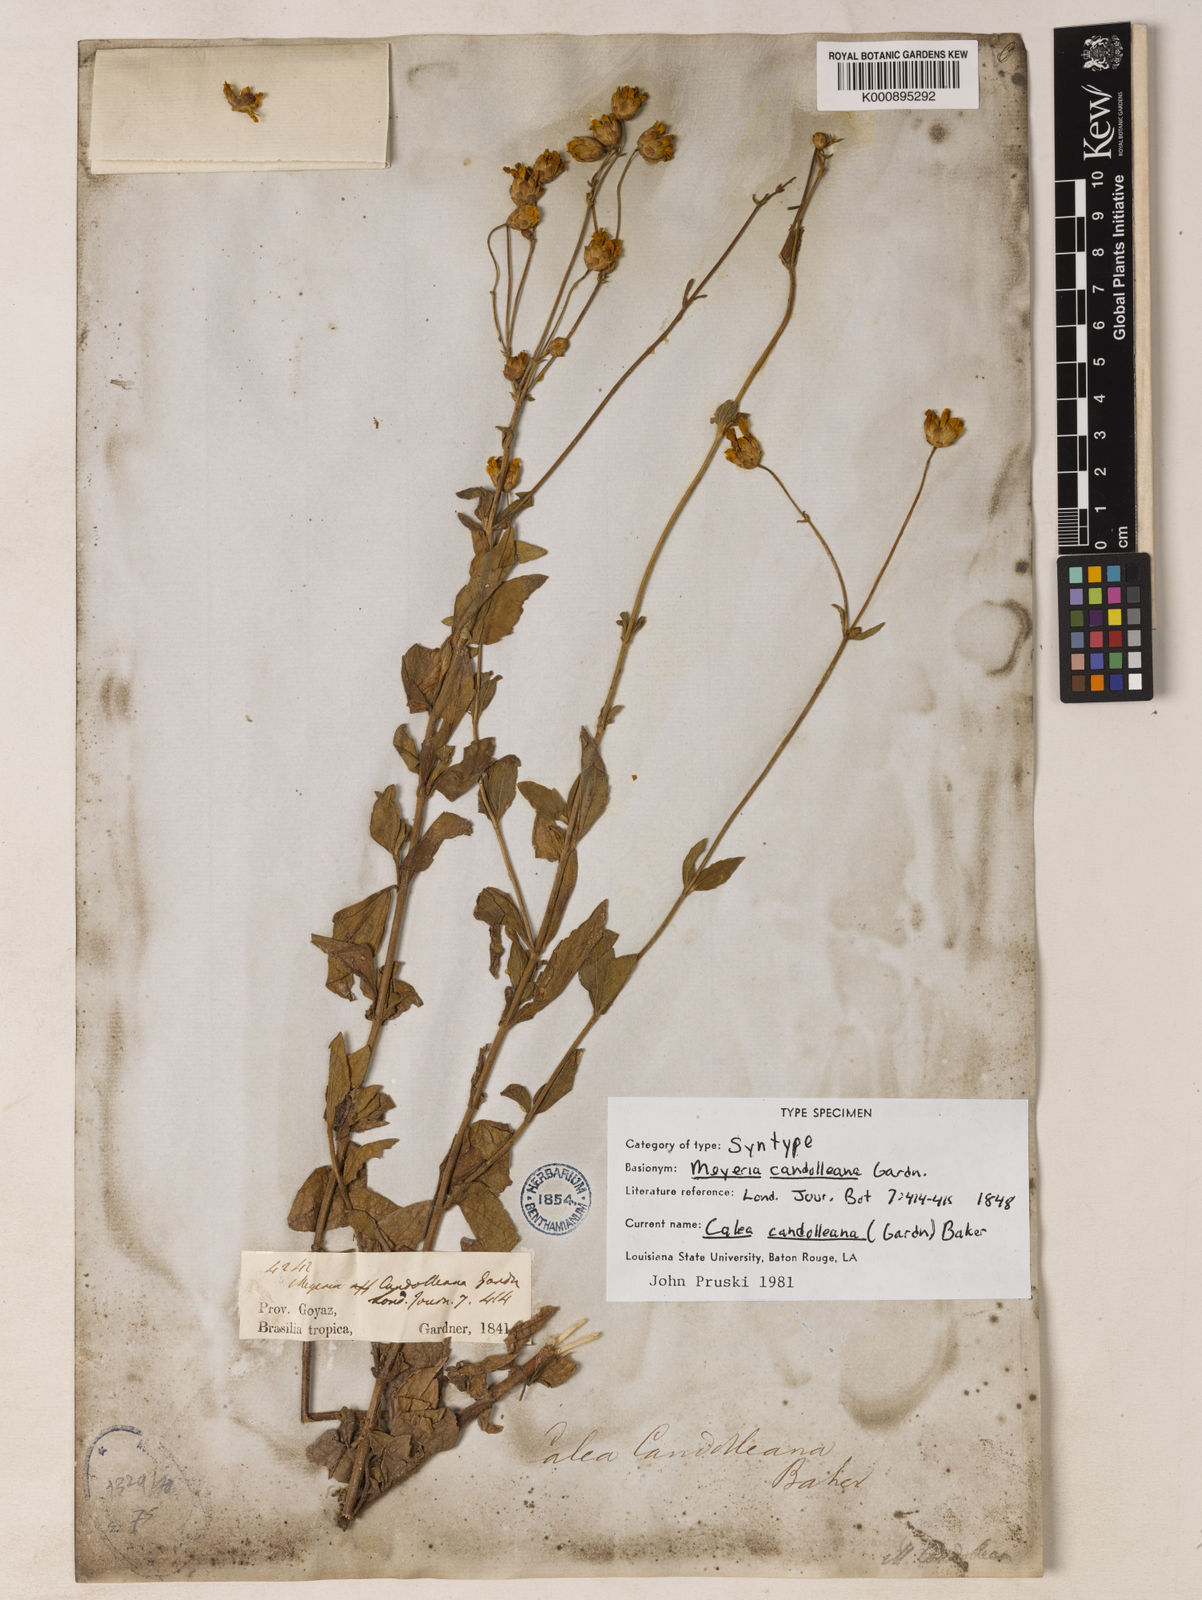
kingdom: Plantae
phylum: Tracheophyta
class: Magnoliopsida
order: Asterales
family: Asteraceae
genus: Calea
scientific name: Calea candolleana
